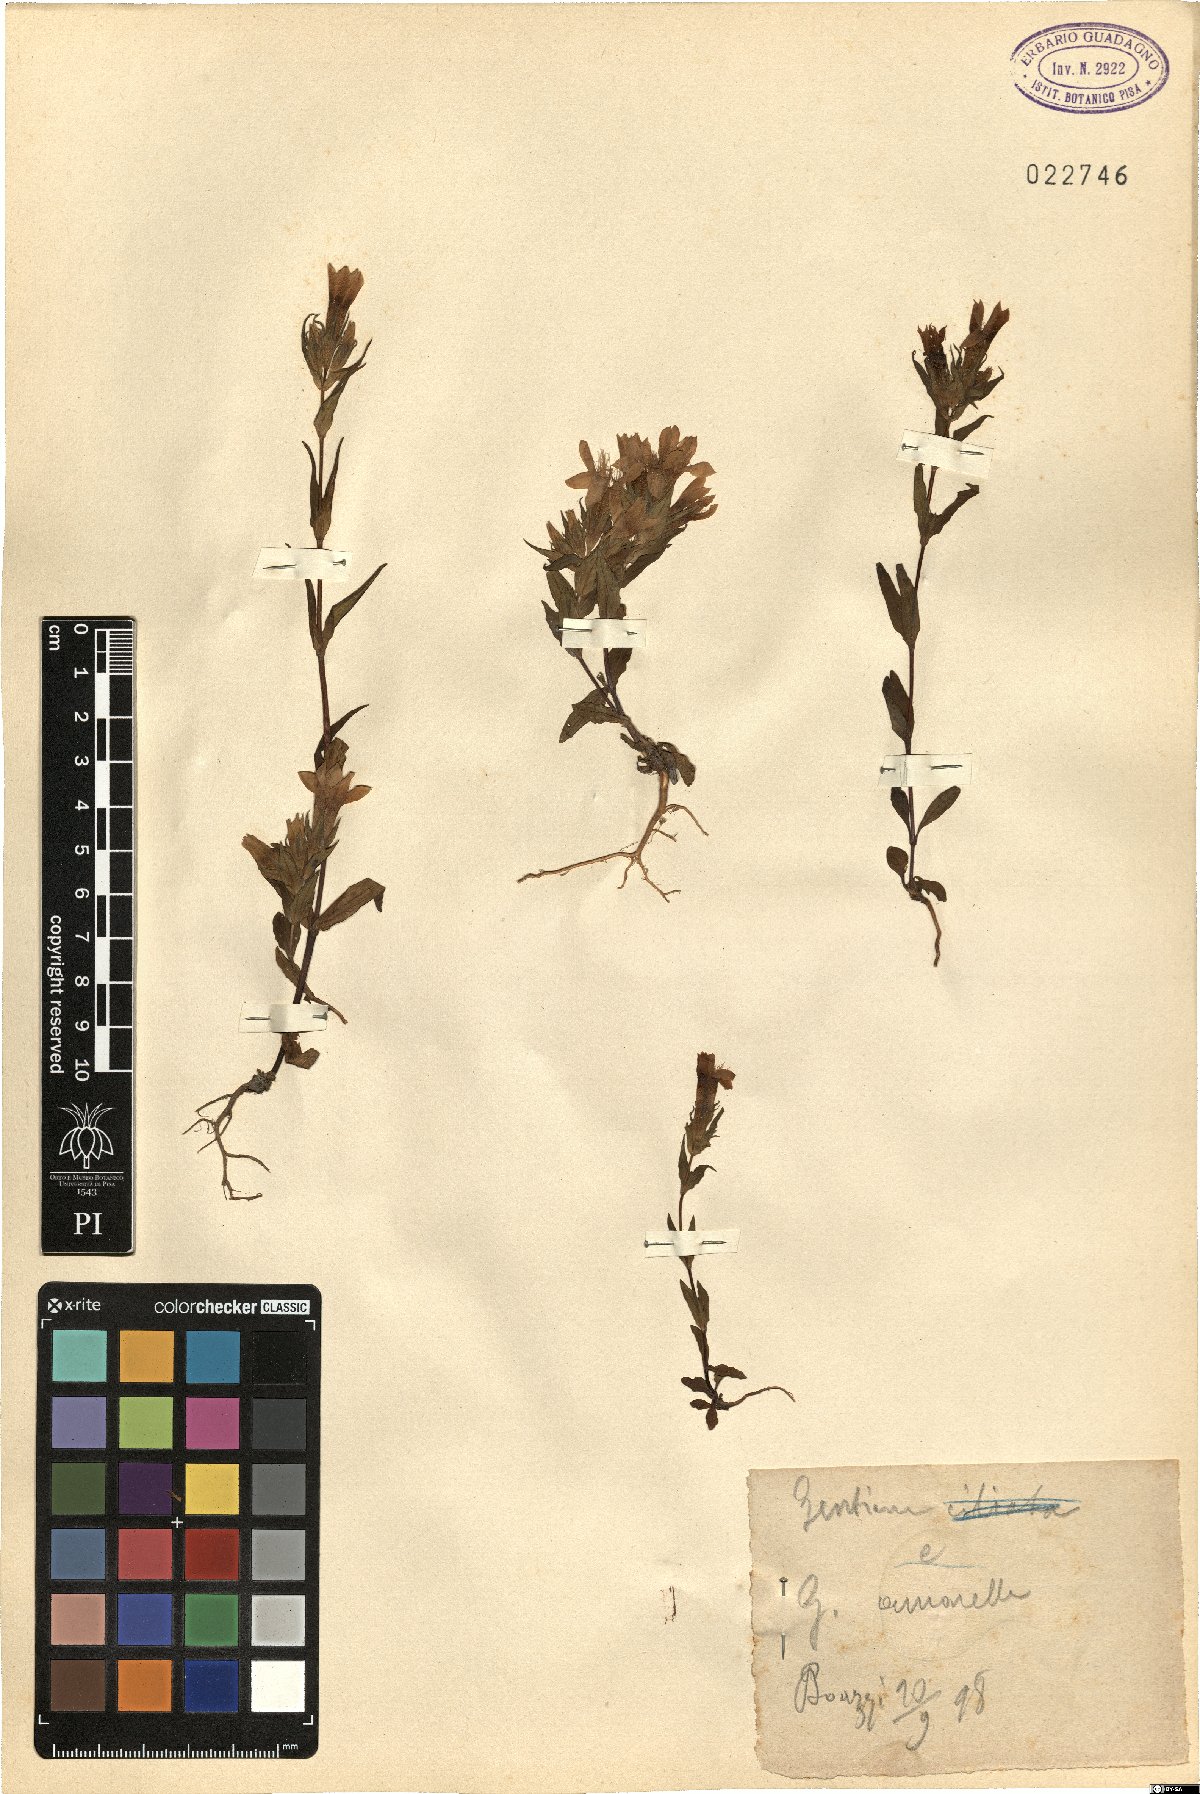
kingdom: Plantae
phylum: Tracheophyta
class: Magnoliopsida
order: Gentianales
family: Gentianaceae
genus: Gentianella
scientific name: Gentianella amarella
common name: Autumn gentian
